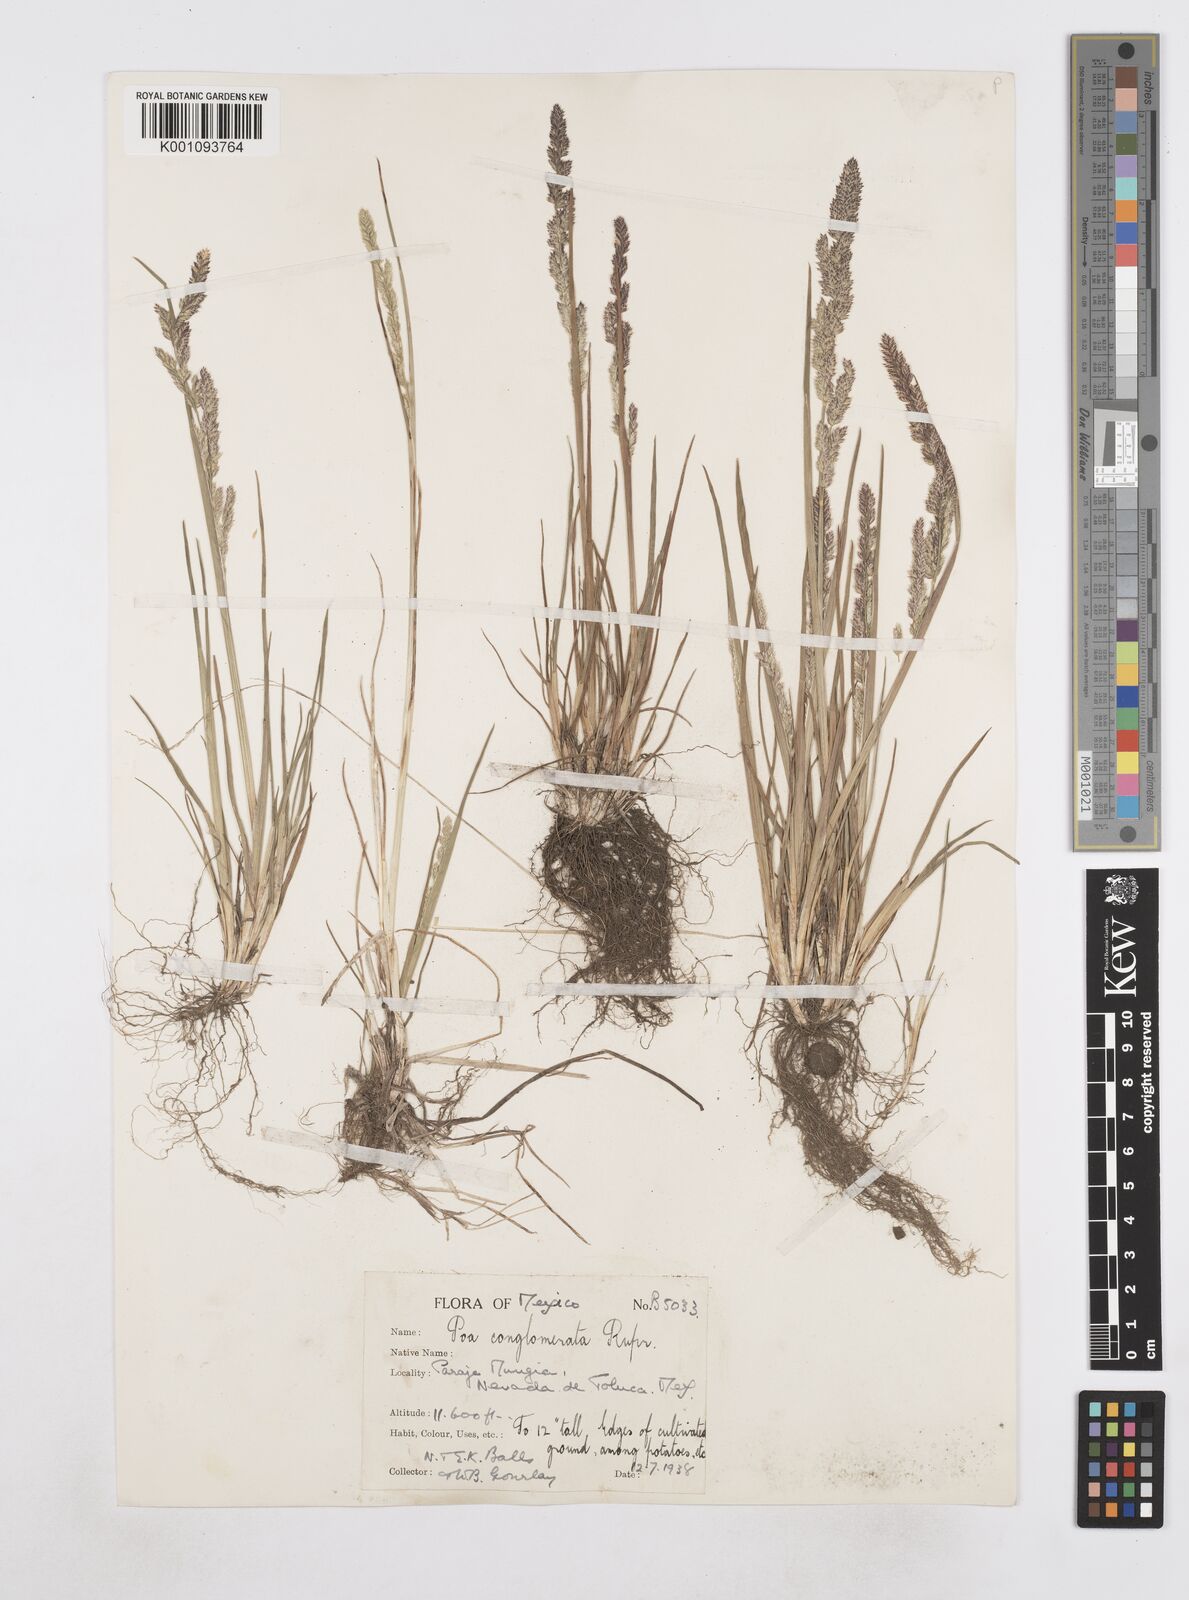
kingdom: Plantae
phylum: Tracheophyta
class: Liliopsida
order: Poales
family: Poaceae
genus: Poa
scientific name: Poa scaberula
